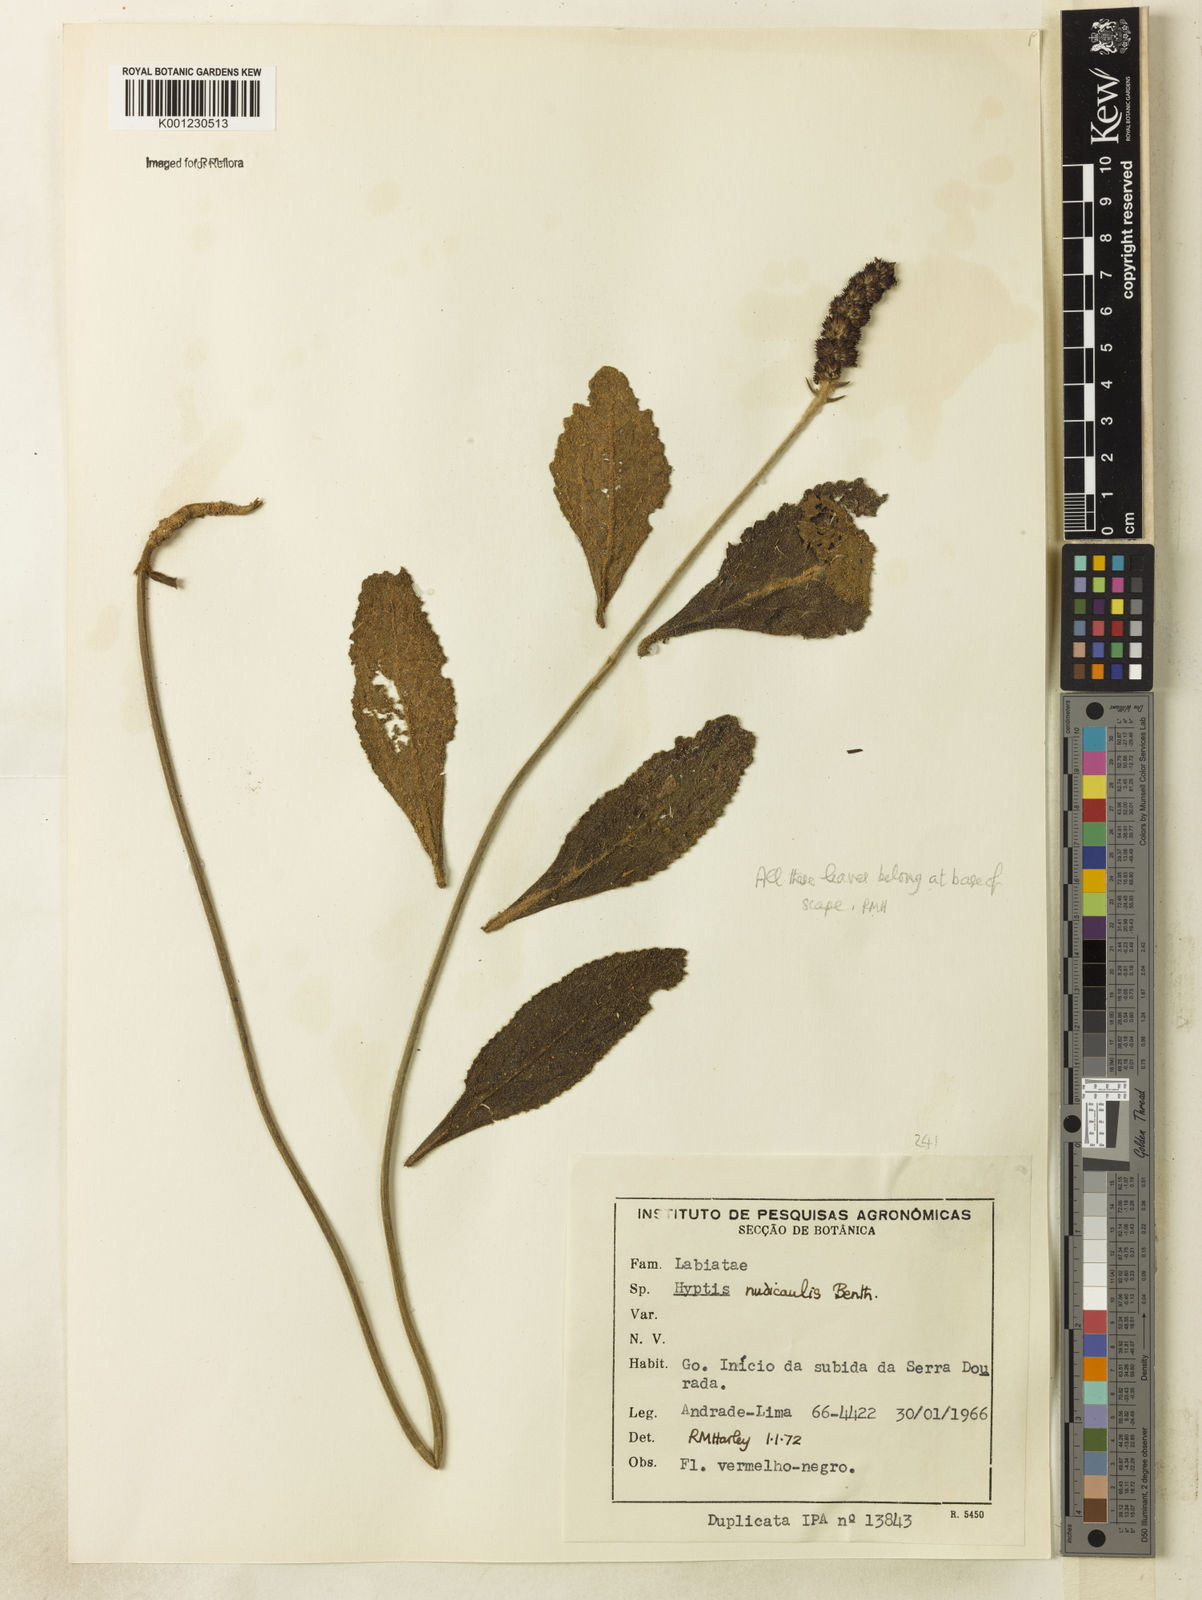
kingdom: Plantae
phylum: Tracheophyta
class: Magnoliopsida
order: Lamiales
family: Lamiaceae
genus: Hyptis
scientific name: Hyptis nudicaulis
